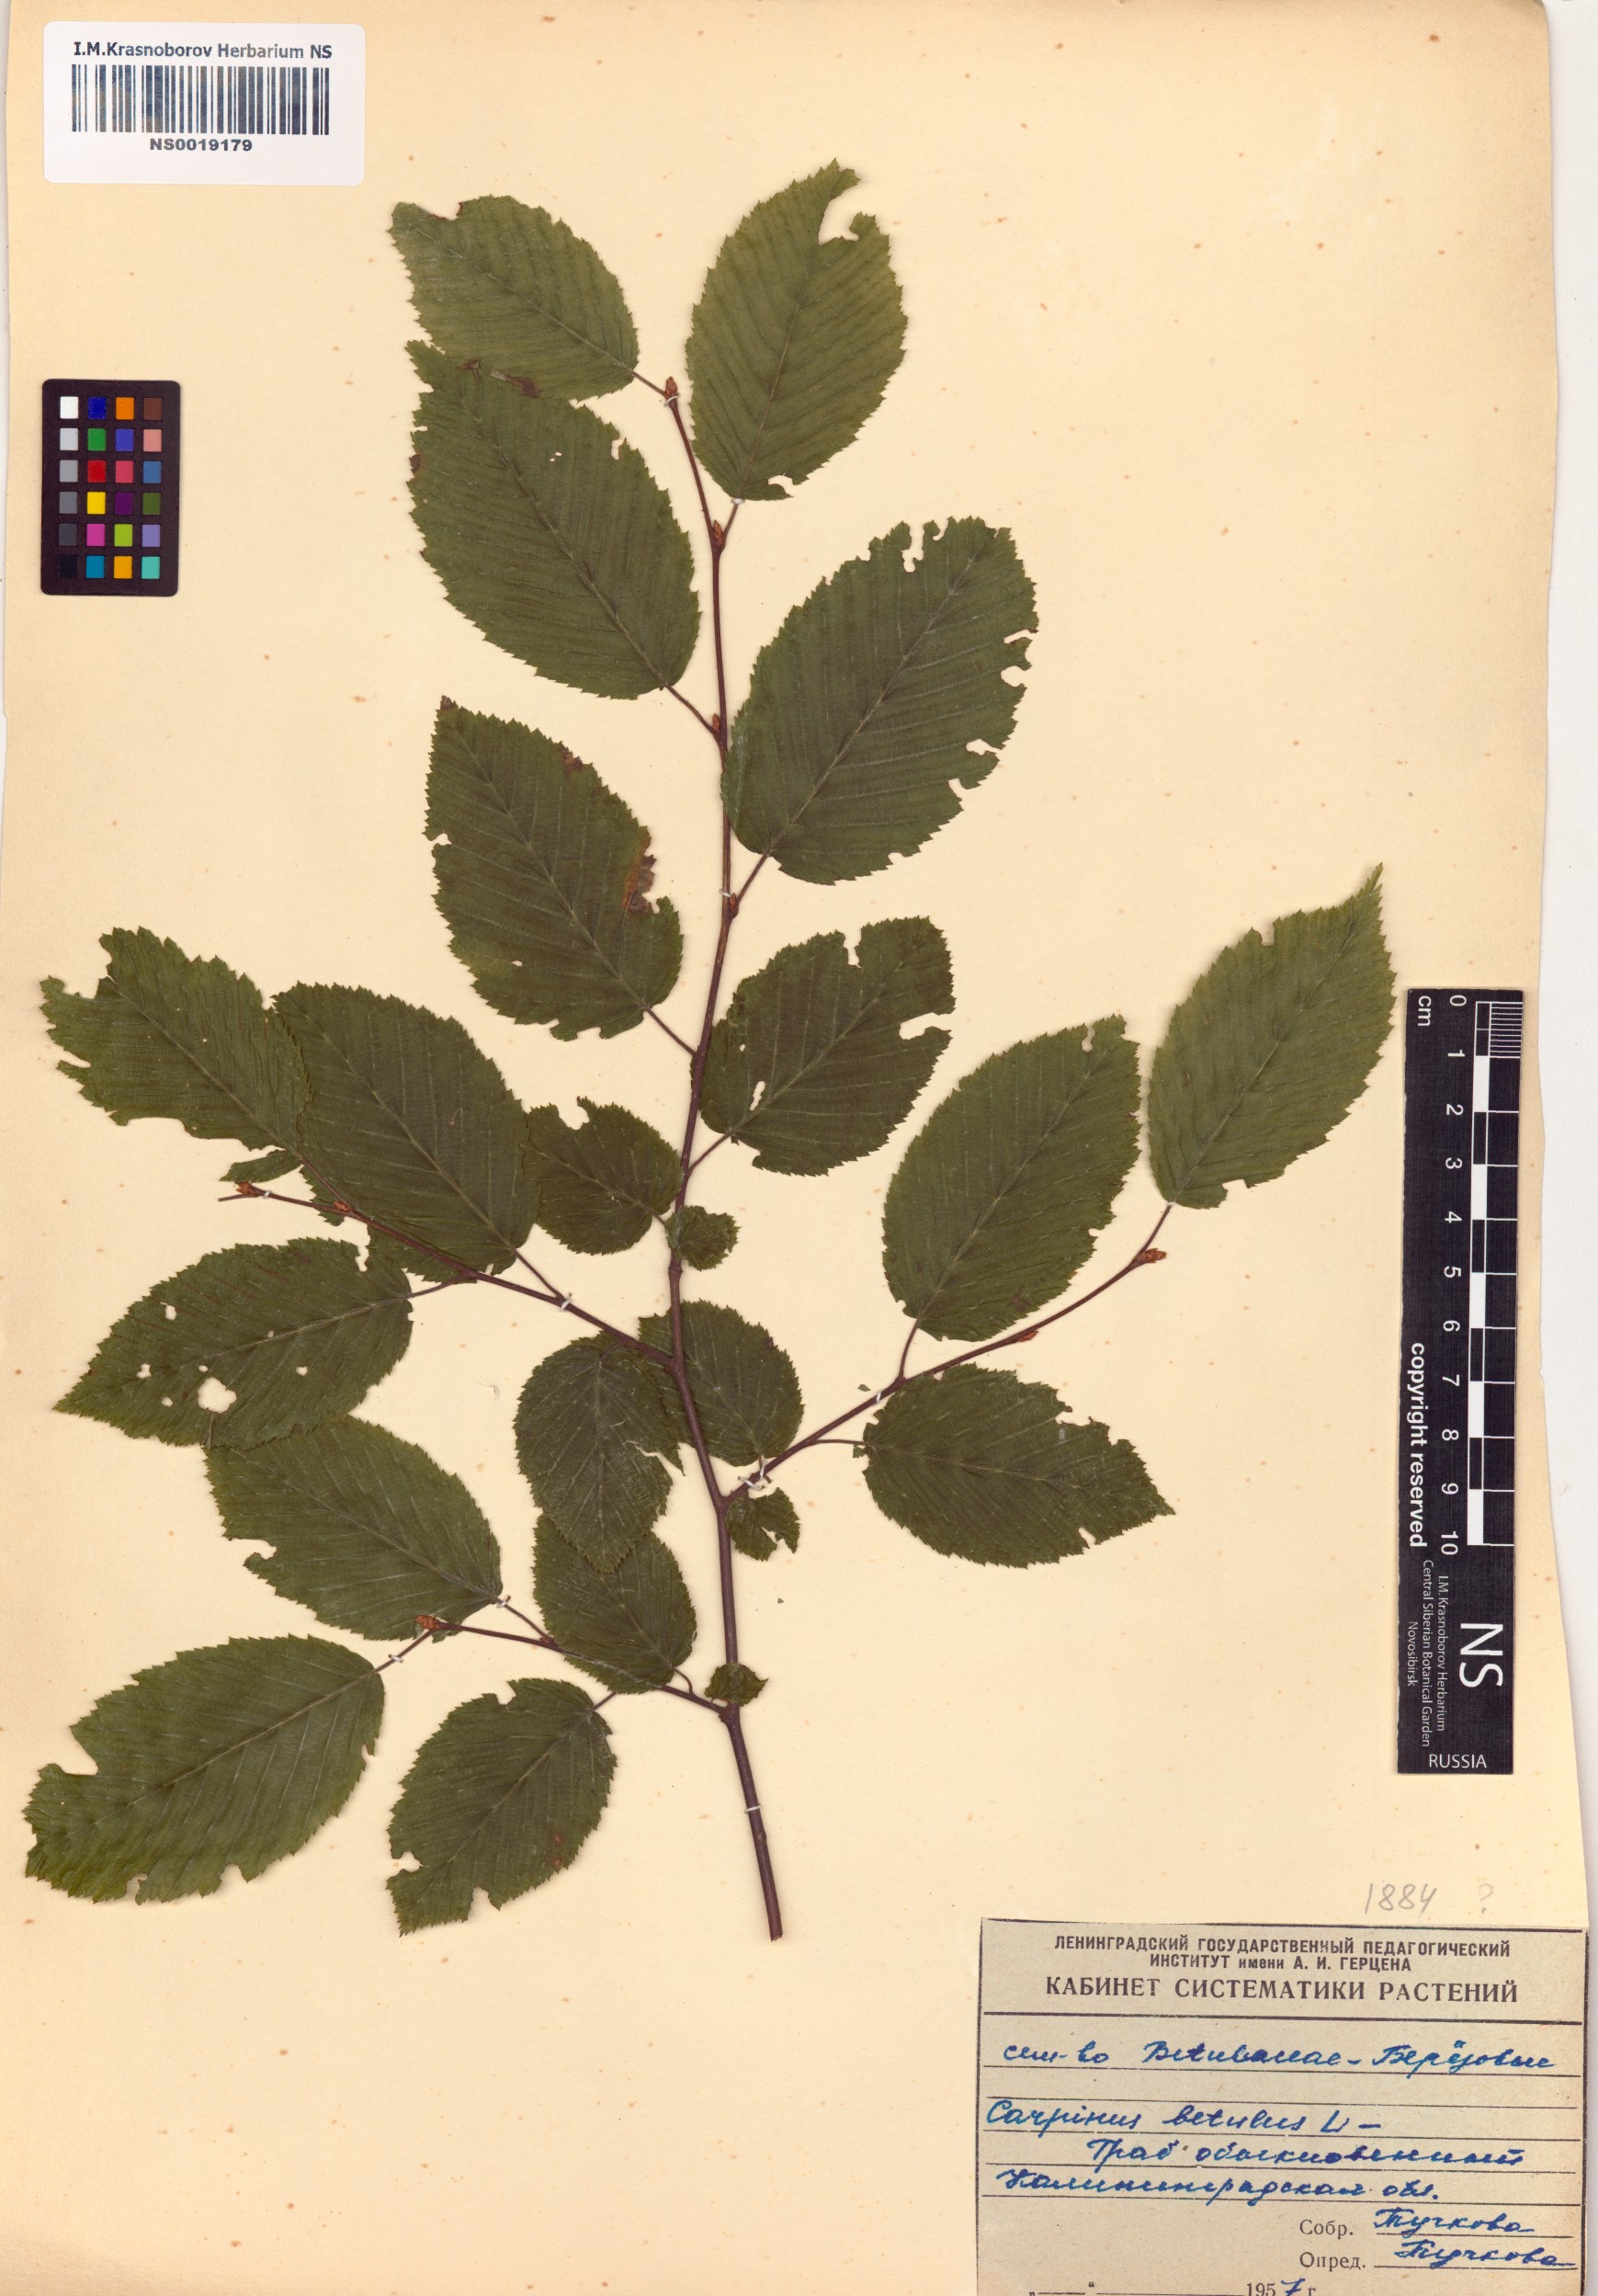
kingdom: Plantae
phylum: Tracheophyta
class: Magnoliopsida
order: Fagales
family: Betulaceae
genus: Carpinus
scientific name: Carpinus betulus
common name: Hornbeam
